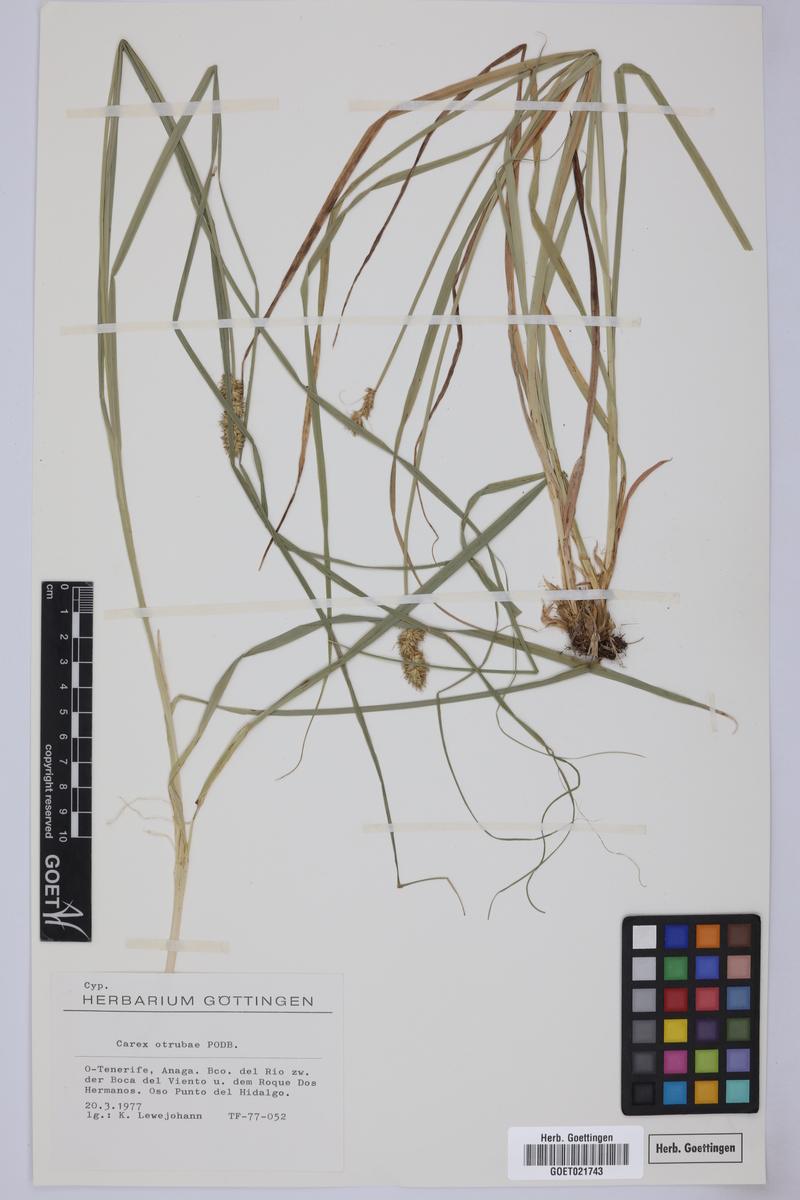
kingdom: Plantae
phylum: Tracheophyta
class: Liliopsida
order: Poales
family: Cyperaceae
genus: Carex
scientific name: Carex otrubae
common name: False fox-sedge
